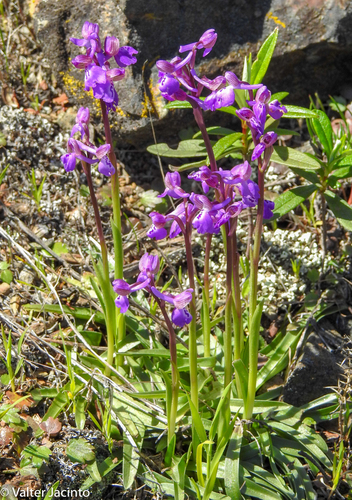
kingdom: Plantae
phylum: Tracheophyta
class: Liliopsida
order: Asparagales
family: Orchidaceae
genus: Anacamptis
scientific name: Anacamptis morio
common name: Green-winged orchid
